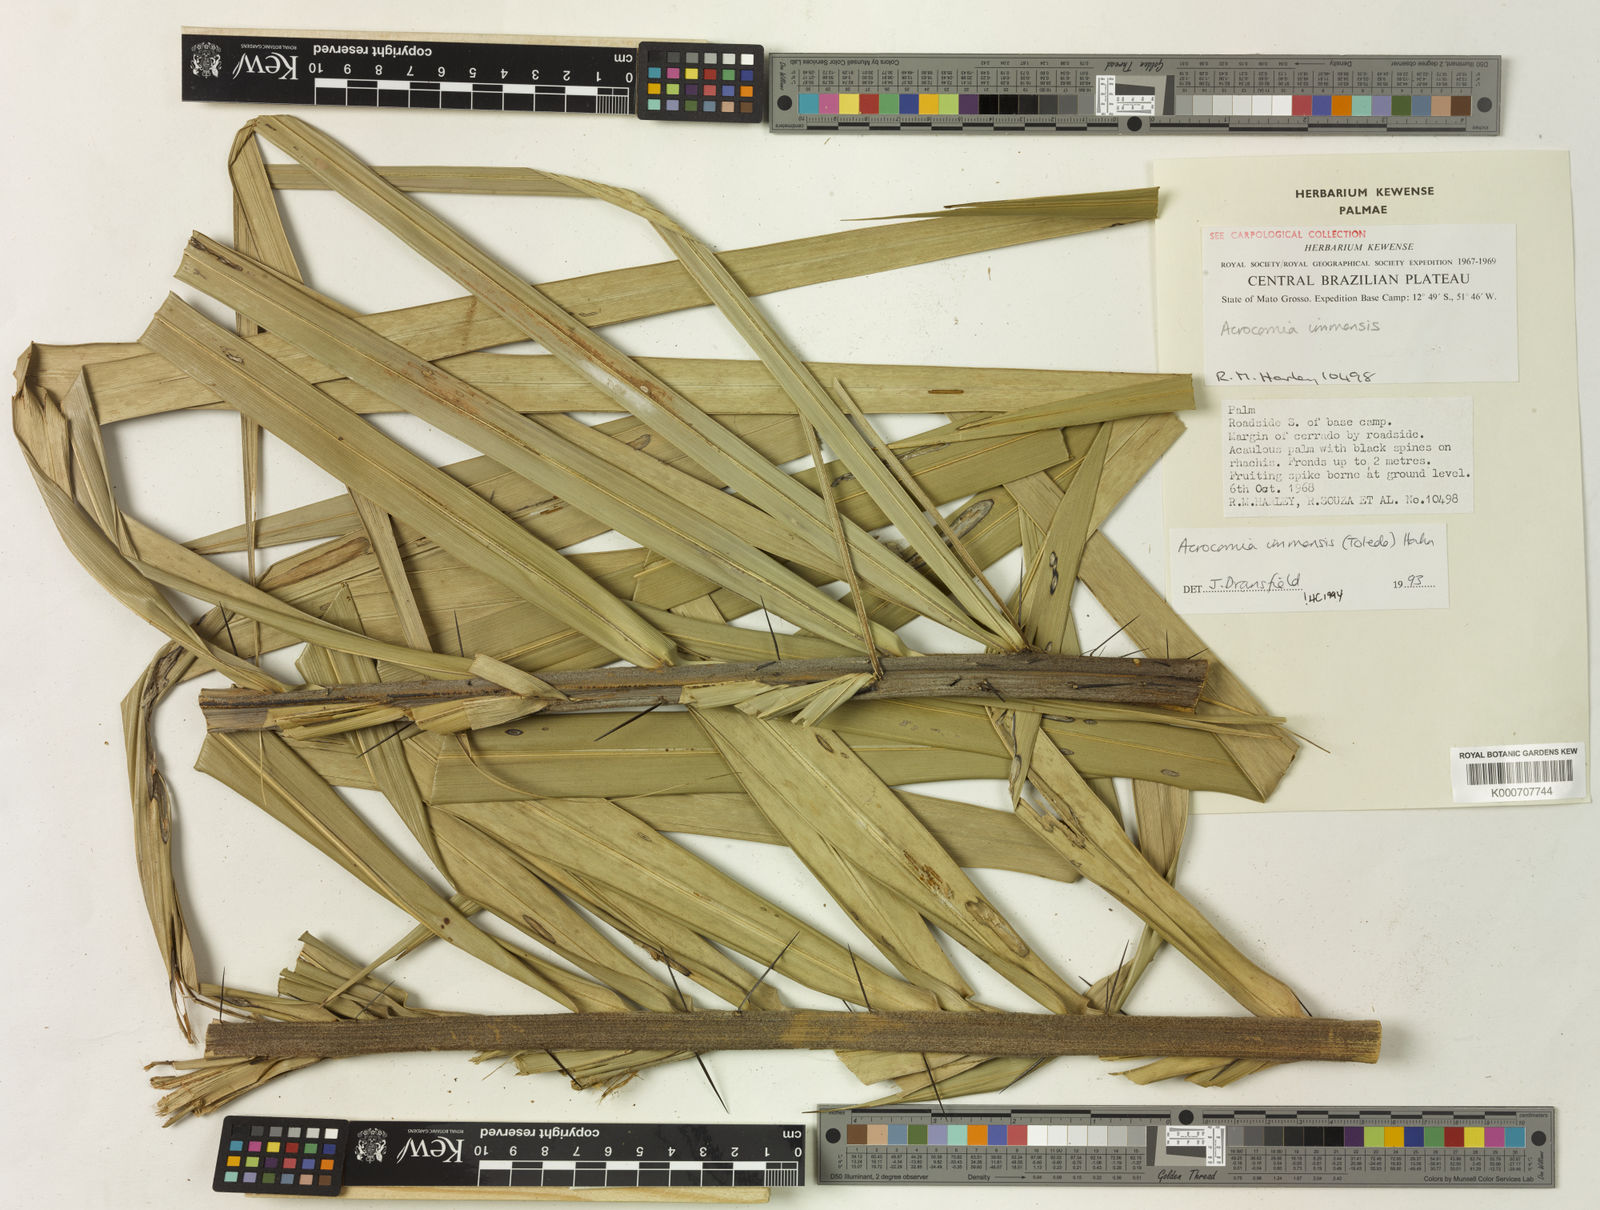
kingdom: Plantae
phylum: Tracheophyta
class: Liliopsida
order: Arecales
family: Arecaceae
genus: Acrocomia
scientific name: Acrocomia emensis
